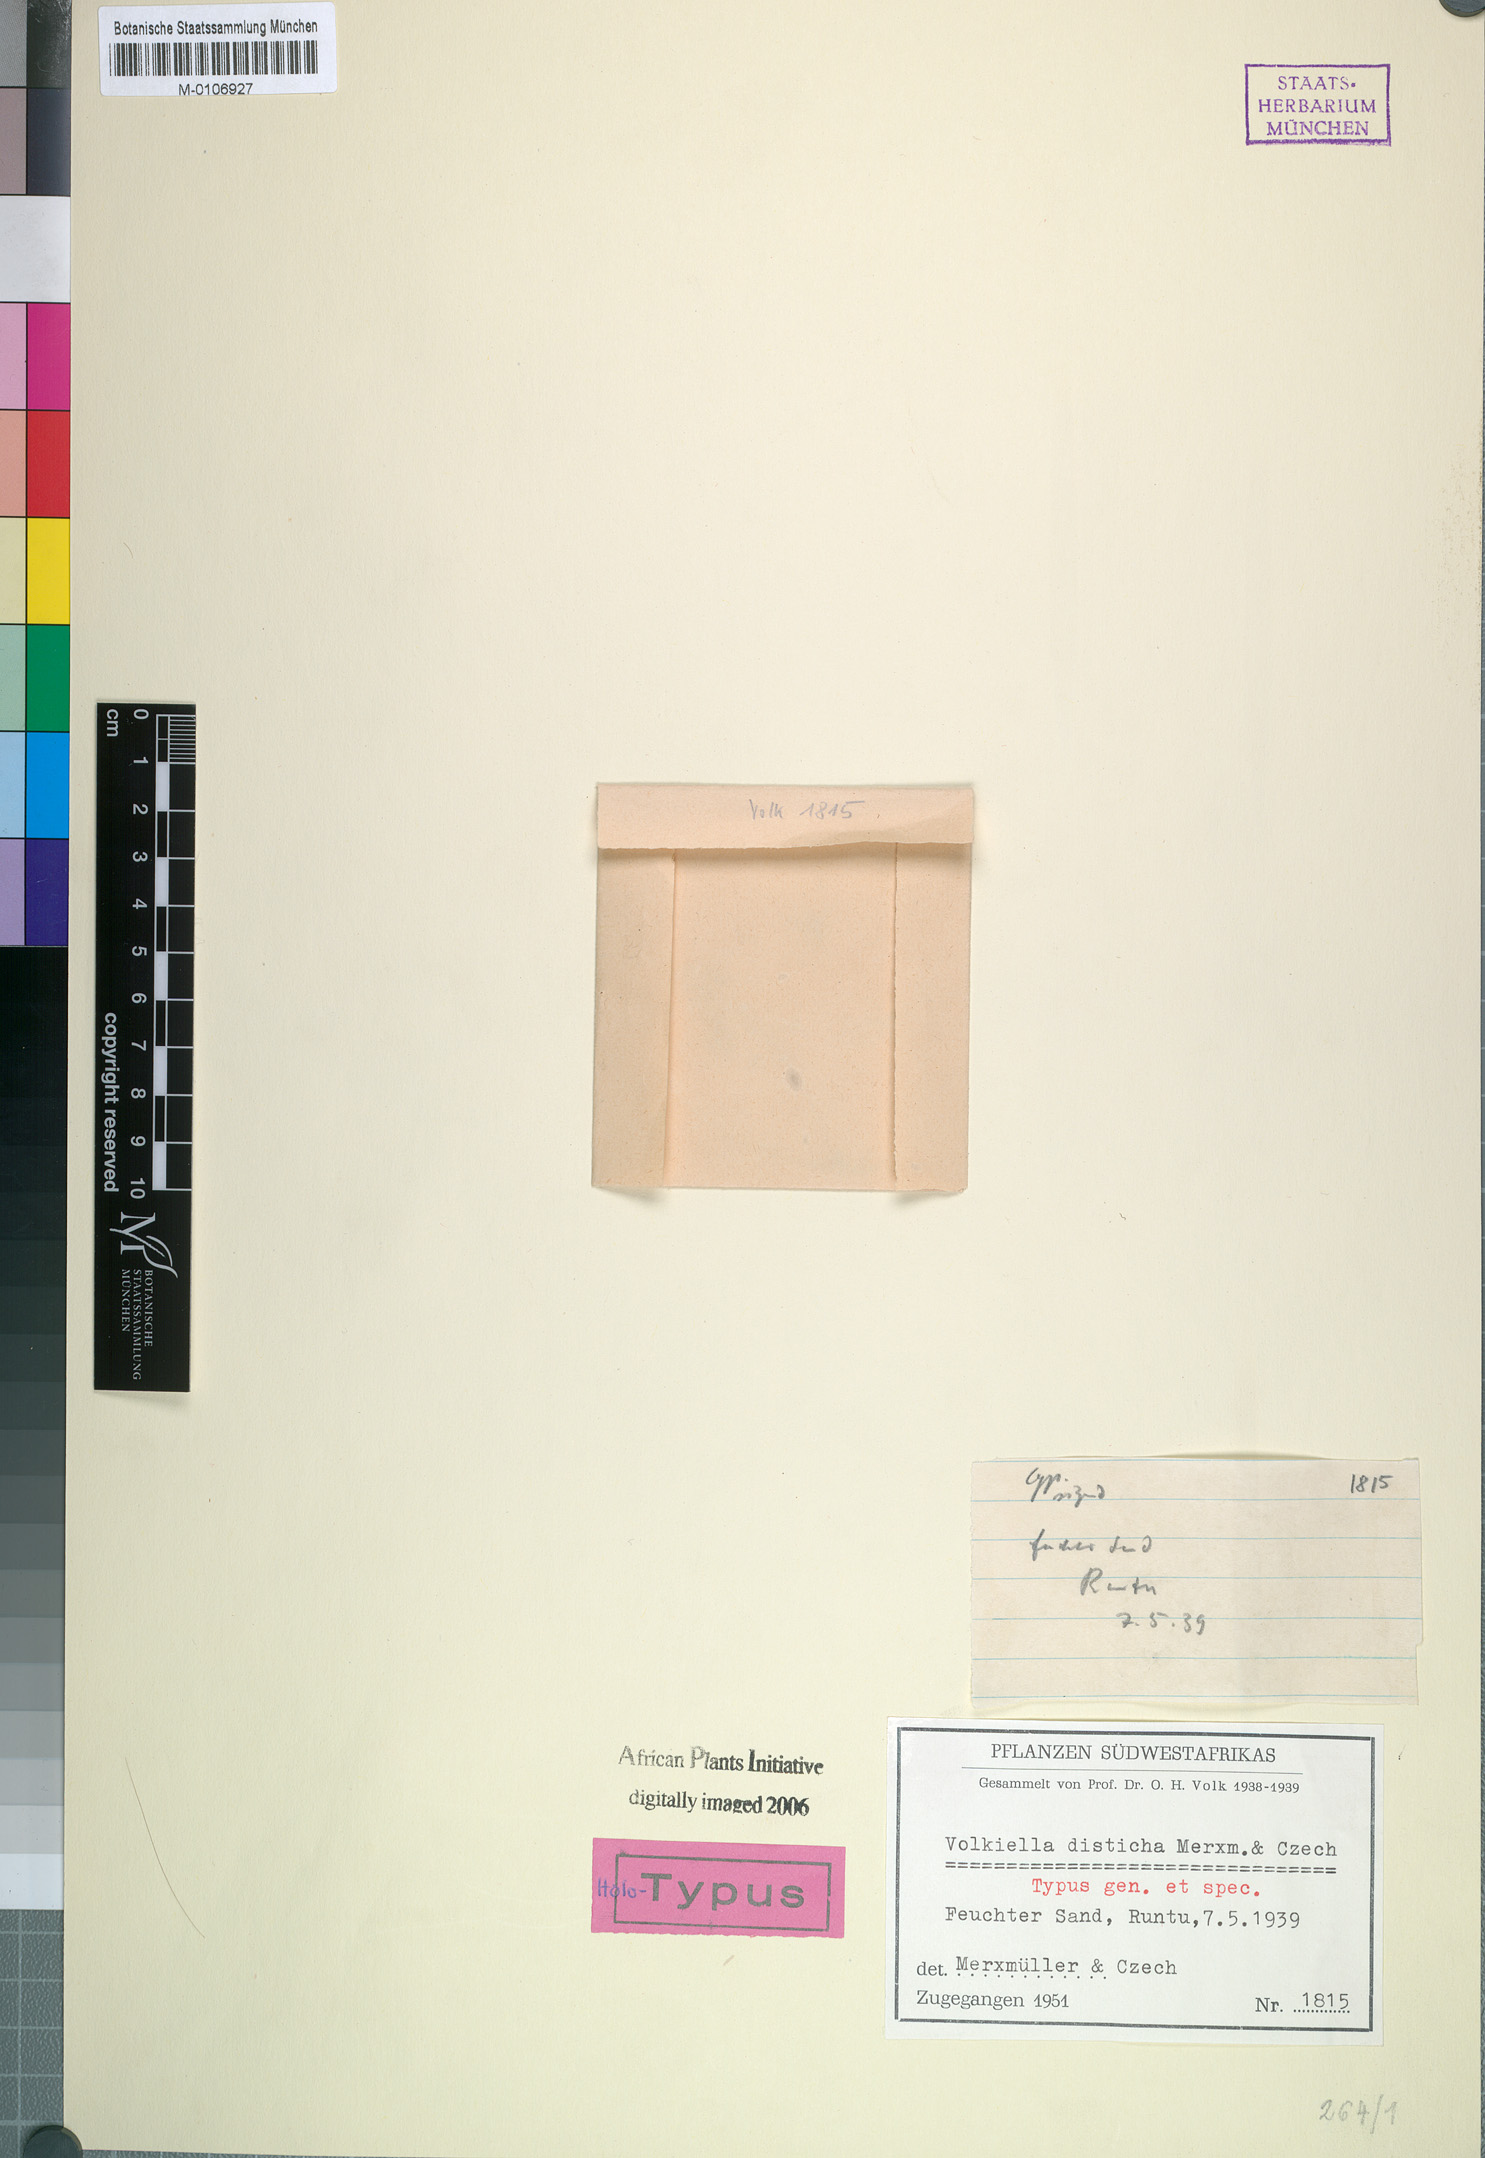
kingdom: Plantae
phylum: Tracheophyta
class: Liliopsida
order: Poales
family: Cyperaceae
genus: Cyperus
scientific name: Cyperus distichus
